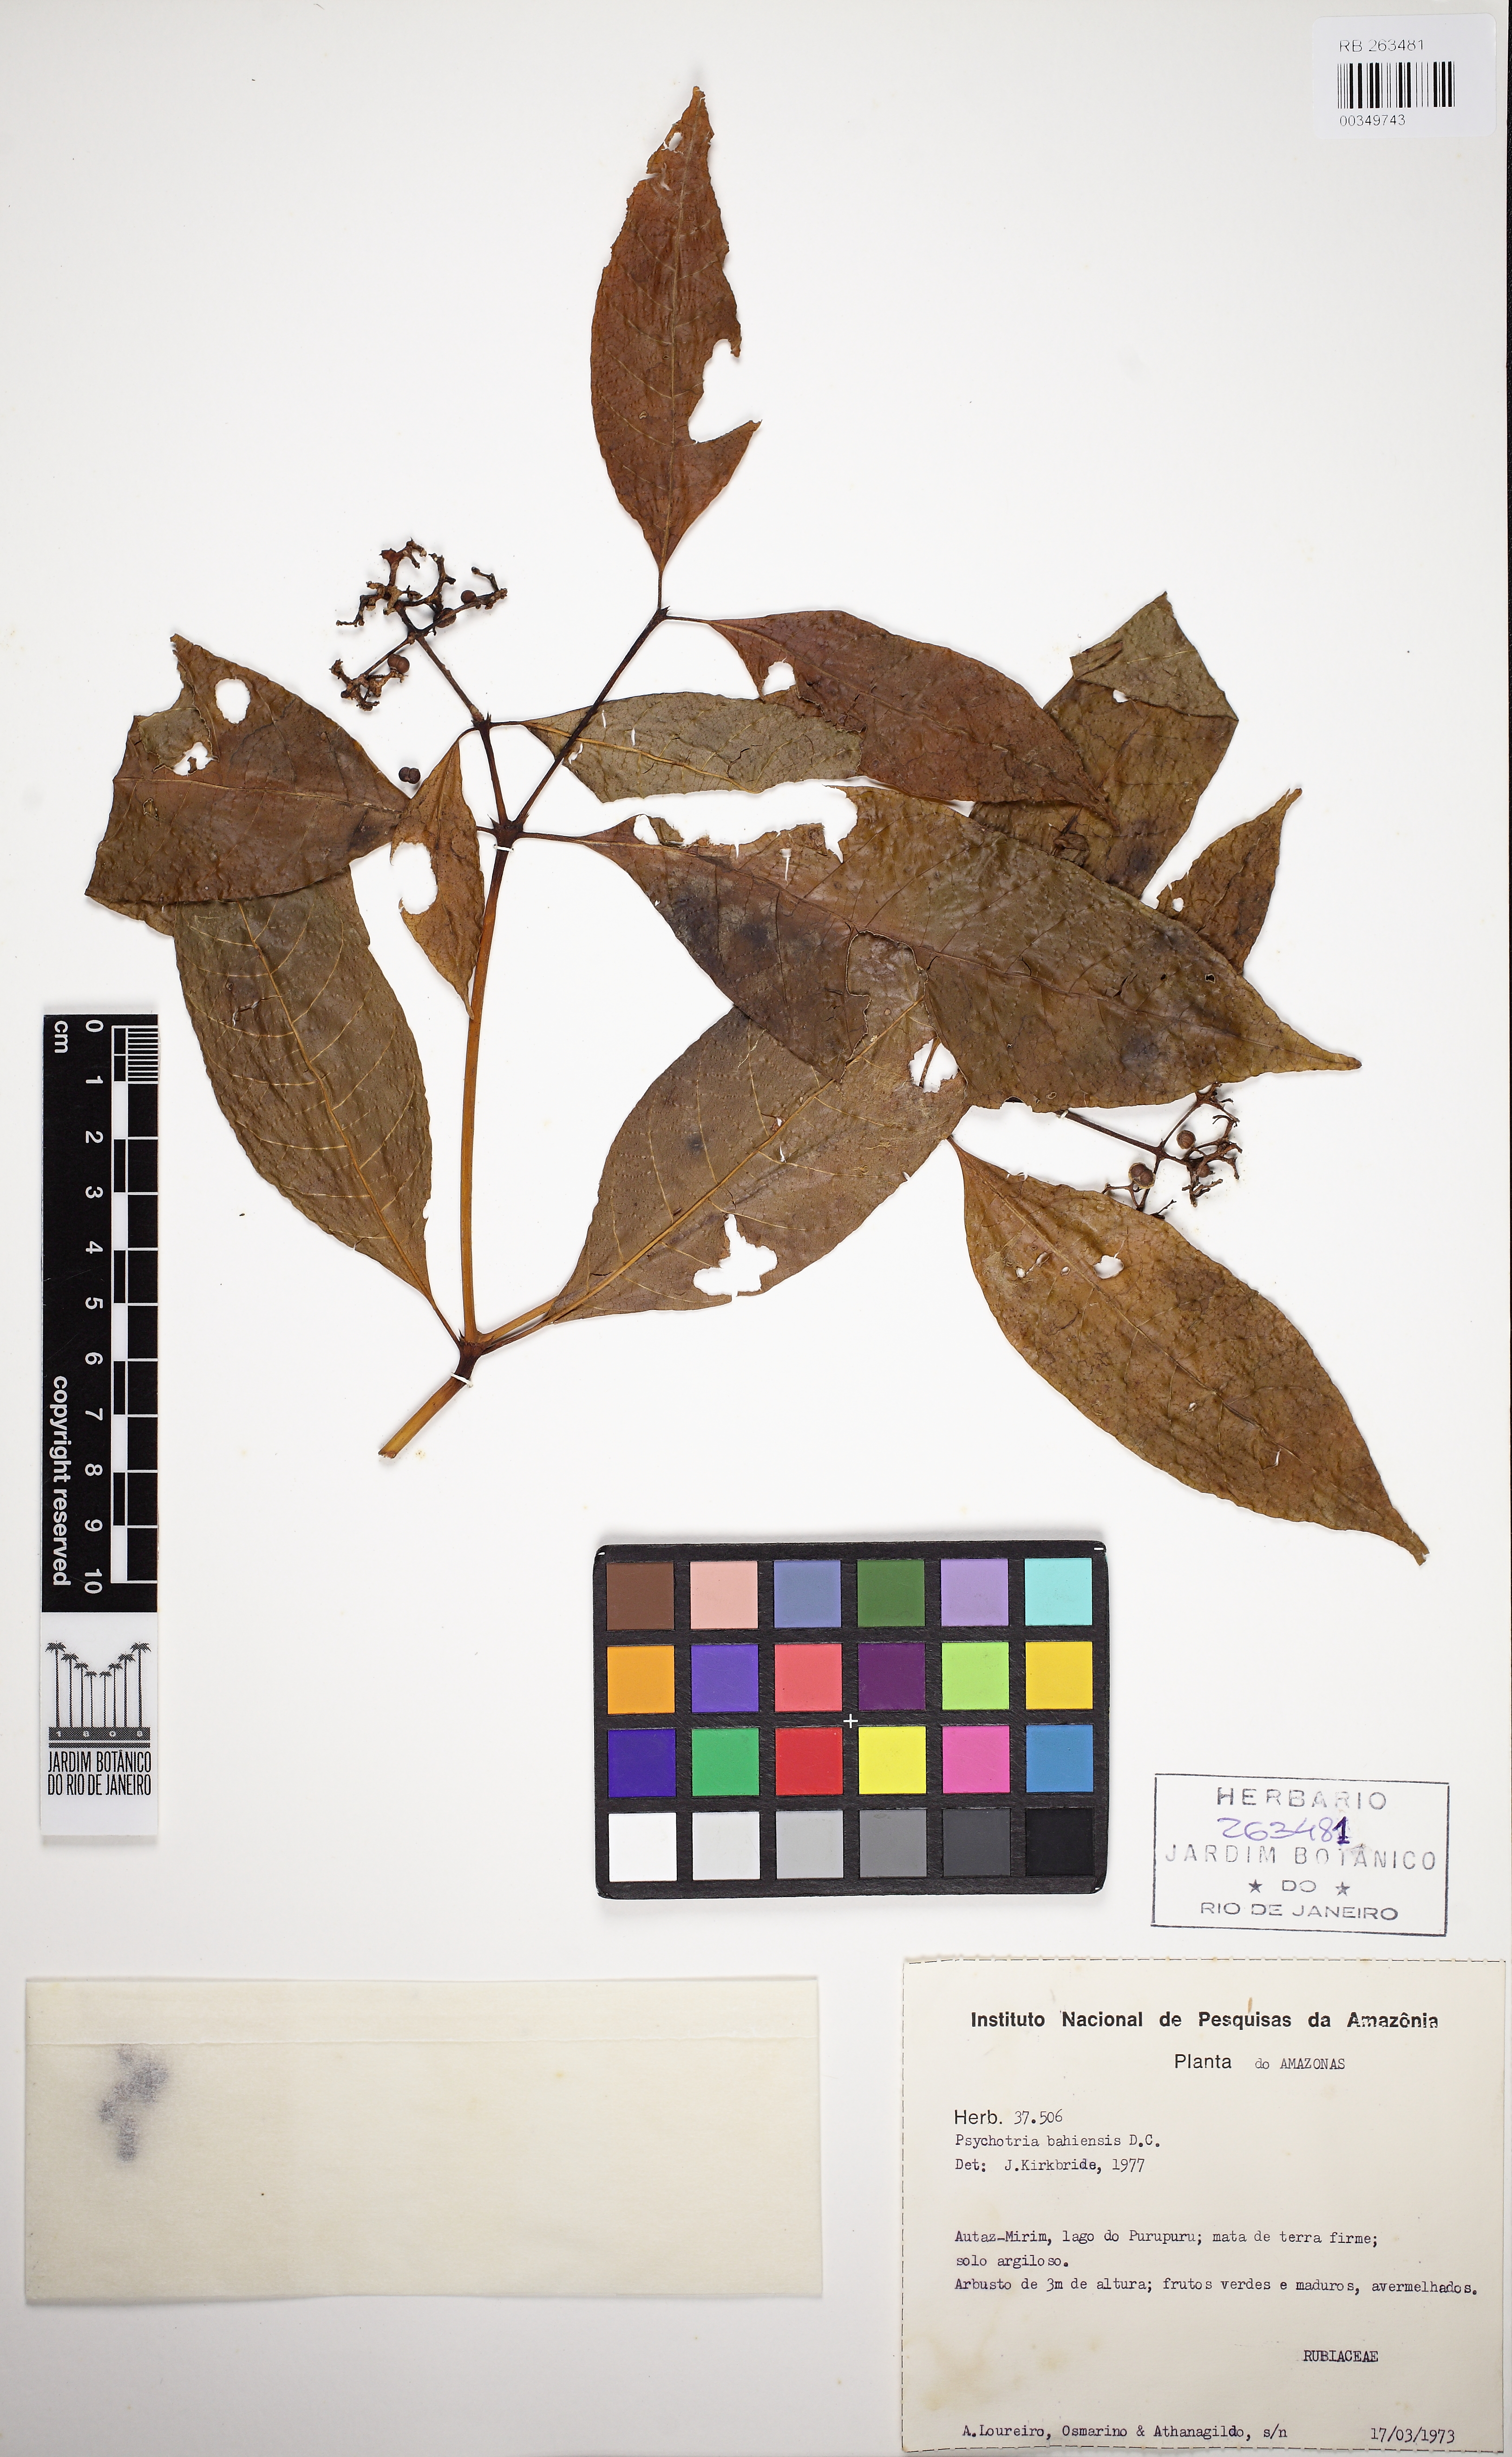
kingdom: Plantae
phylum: Tracheophyta
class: Magnoliopsida
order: Gentianales
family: Rubiaceae
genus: Psychotria
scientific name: Psychotria bahiensis
